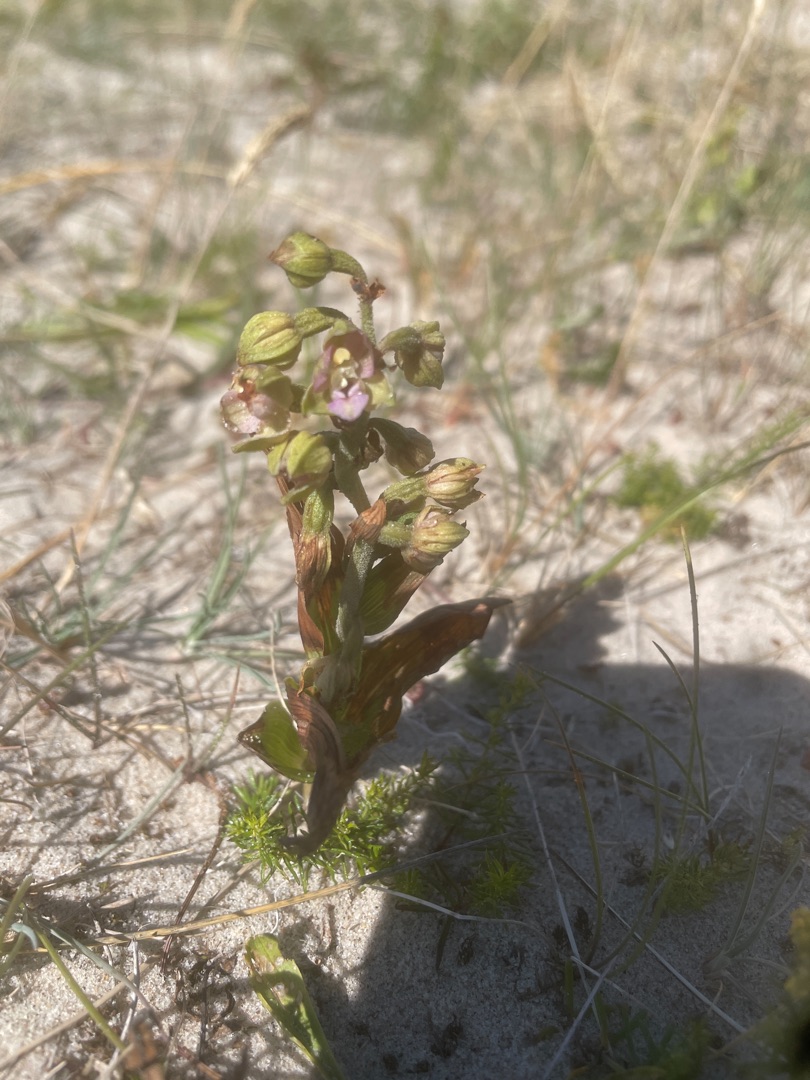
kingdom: Plantae
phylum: Tracheophyta
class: Liliopsida
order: Asparagales
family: Orchidaceae
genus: Epipactis
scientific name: Epipactis helleborine
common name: Hollandsk hullæbe
